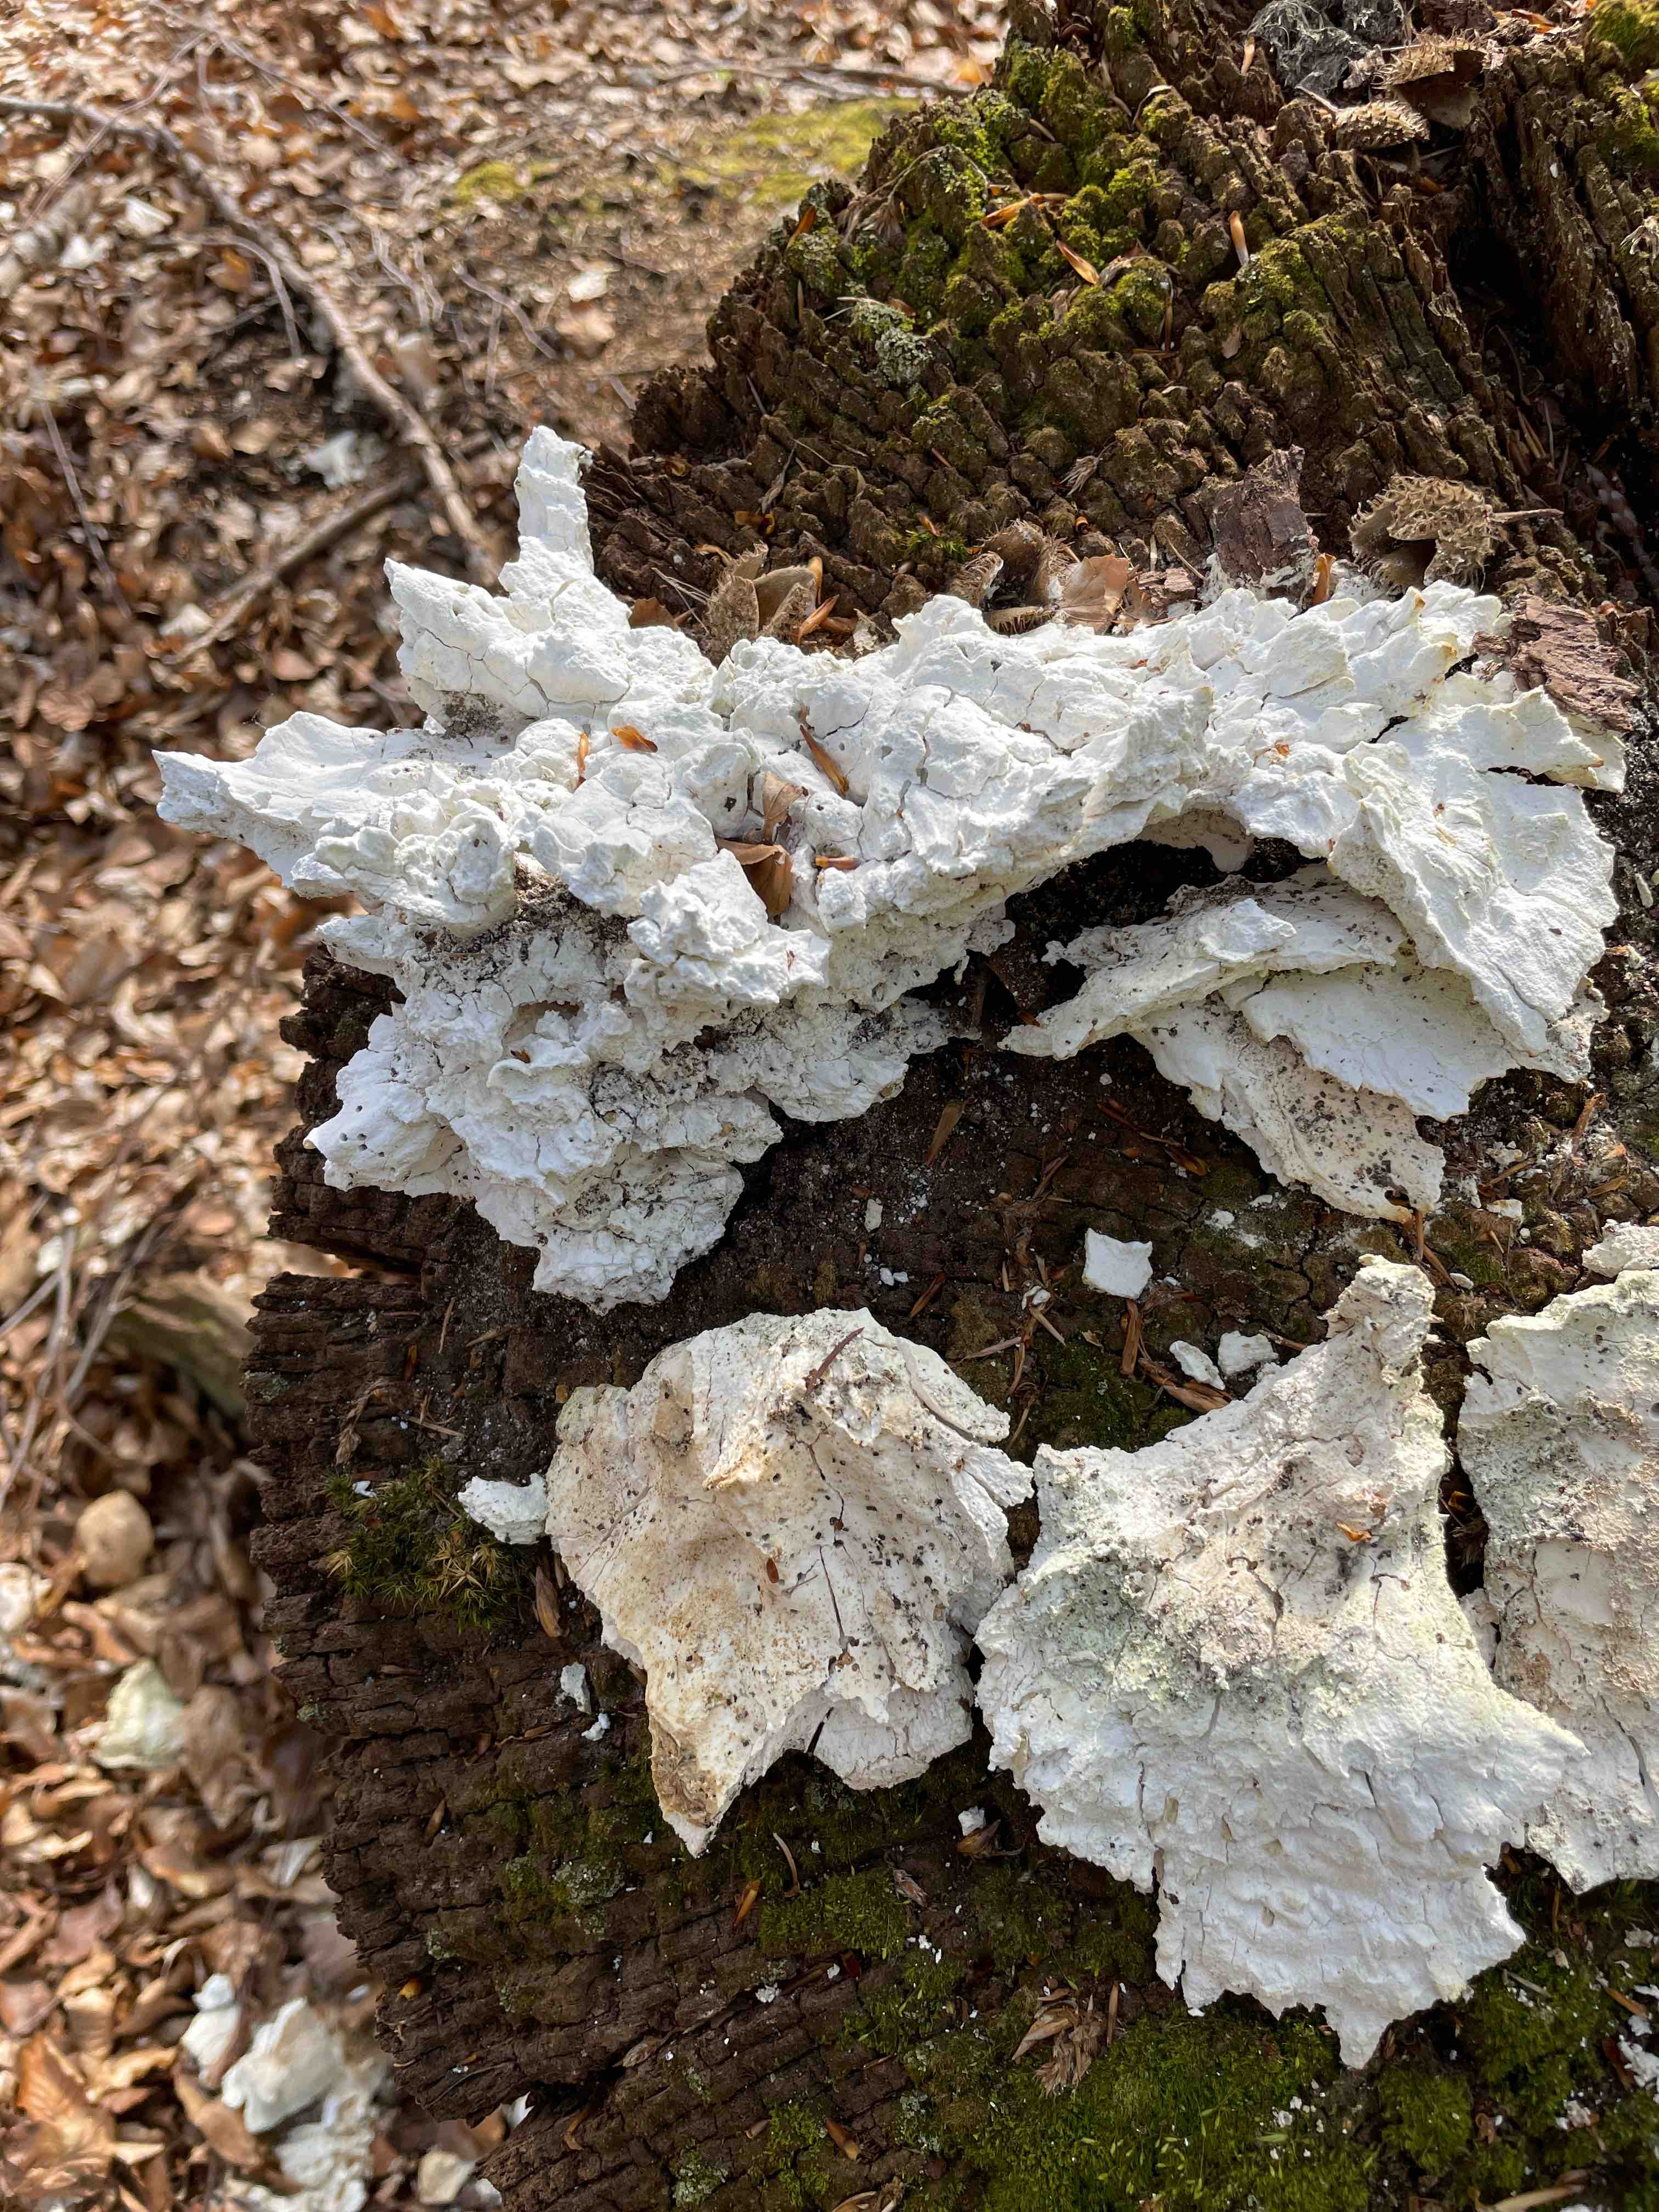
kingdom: Fungi
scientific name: Fungi
